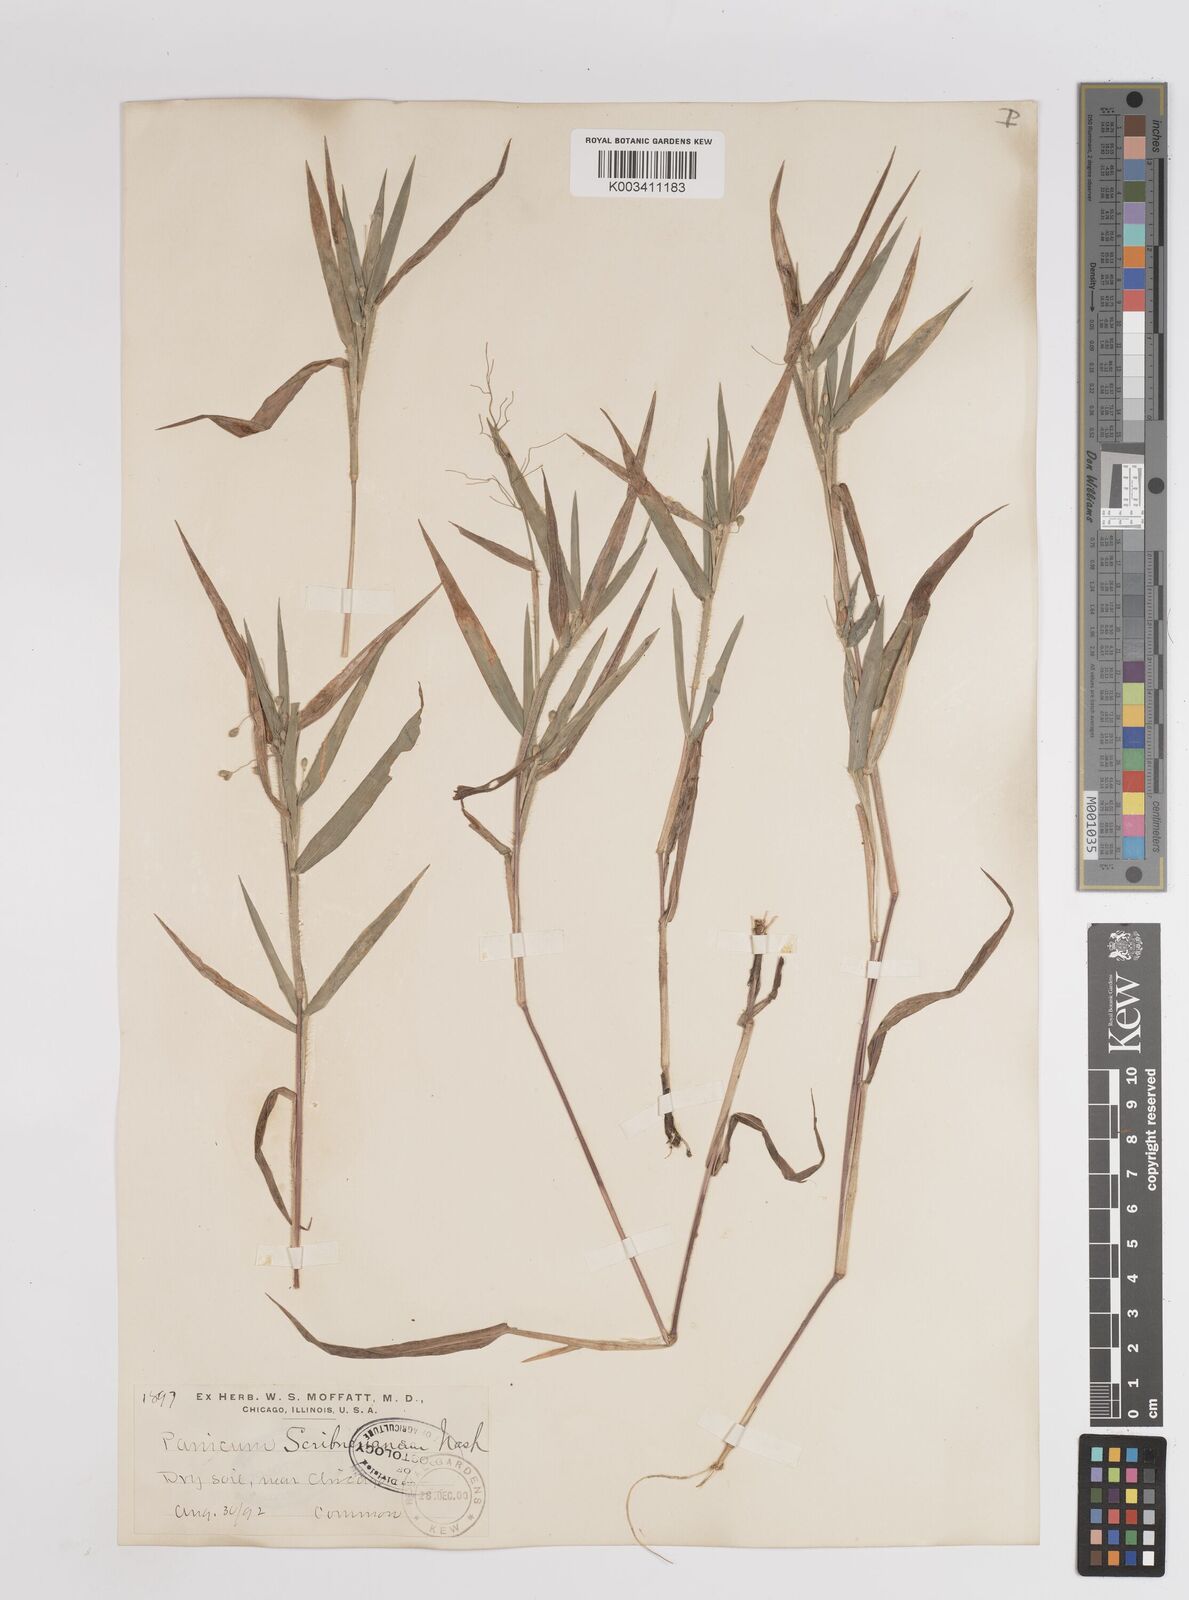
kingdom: Plantae
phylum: Tracheophyta
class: Liliopsida
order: Poales
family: Poaceae
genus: Dichanthelium
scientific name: Dichanthelium scribnerianum
